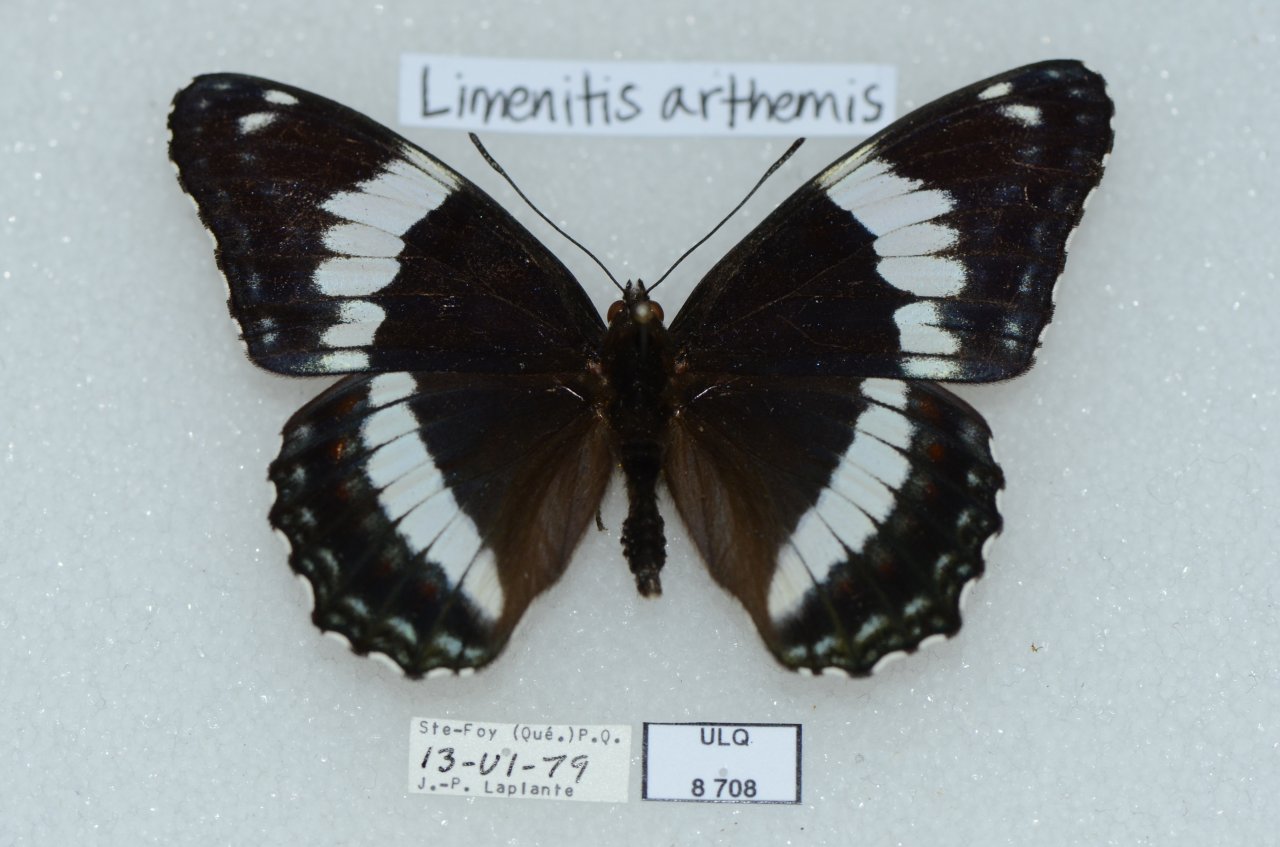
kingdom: Animalia
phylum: Arthropoda
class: Insecta
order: Lepidoptera
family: Nymphalidae
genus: Limenitis
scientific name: Limenitis arthemis
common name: Red-spotted Admiral
